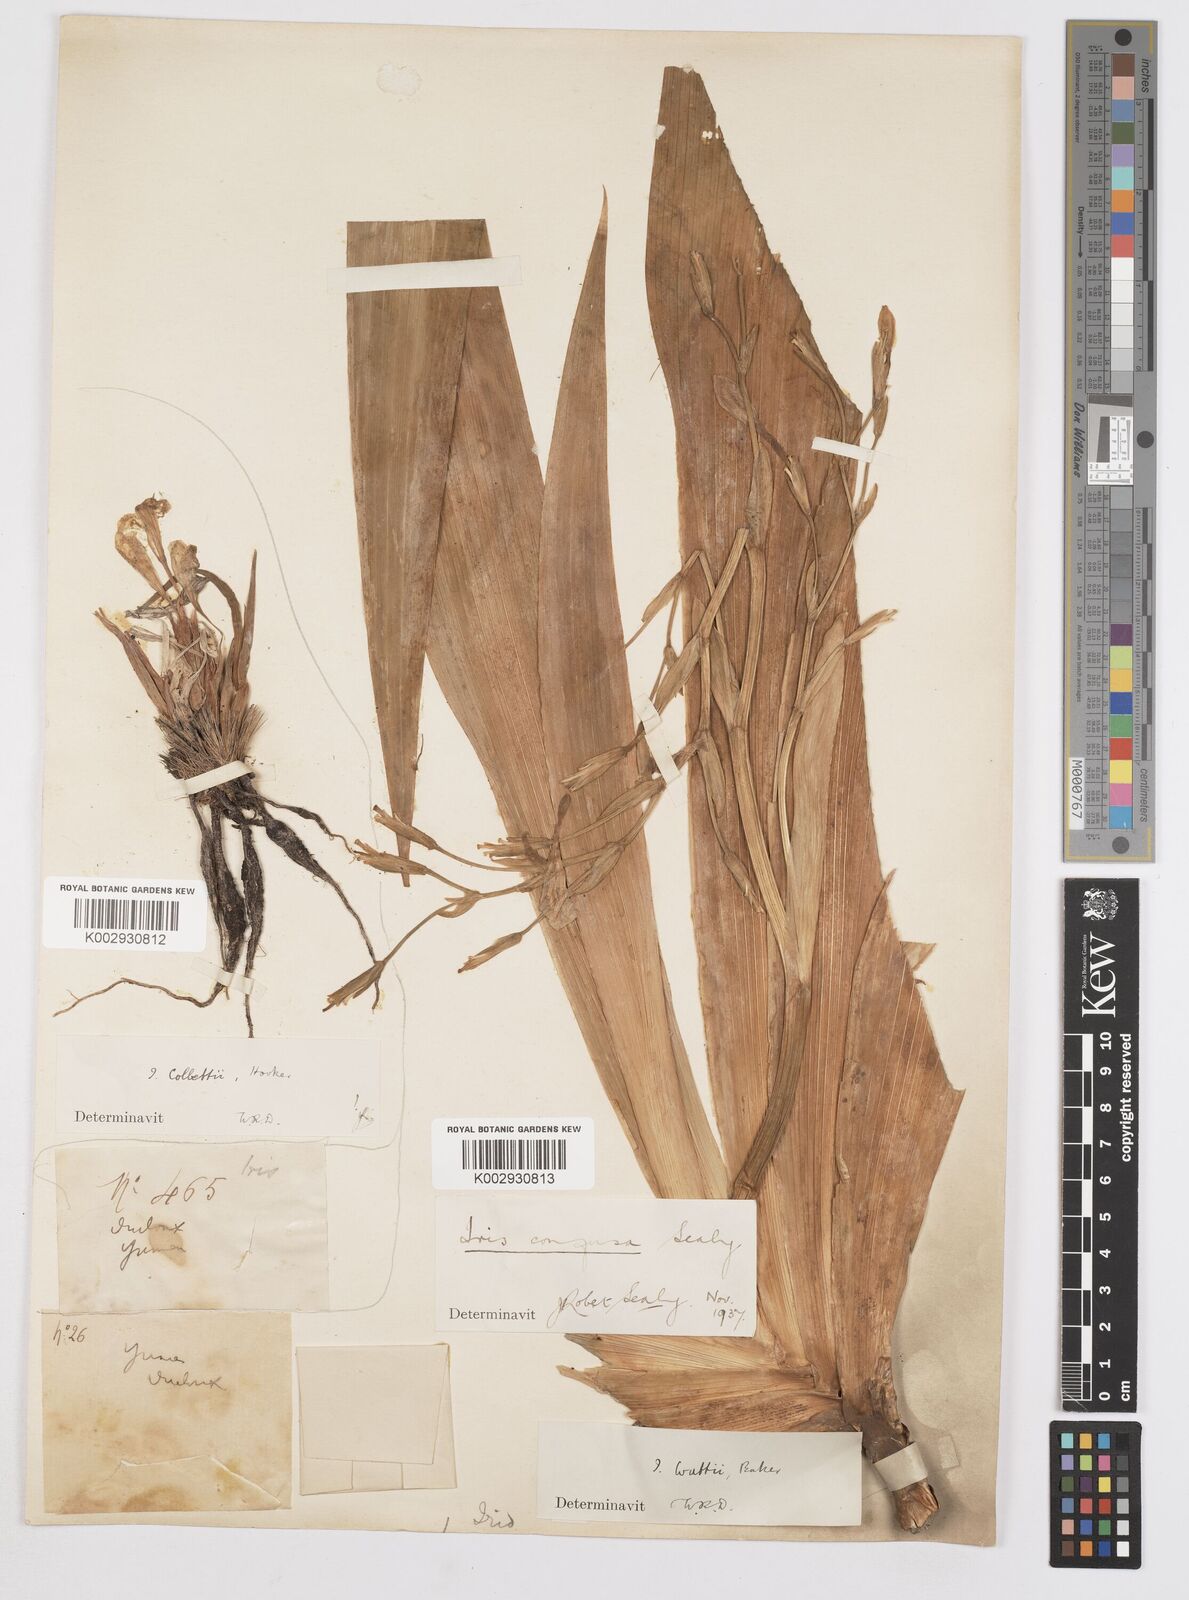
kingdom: Plantae
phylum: Tracheophyta
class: Liliopsida
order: Asparagales
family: Iridaceae
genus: Iris
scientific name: Iris
